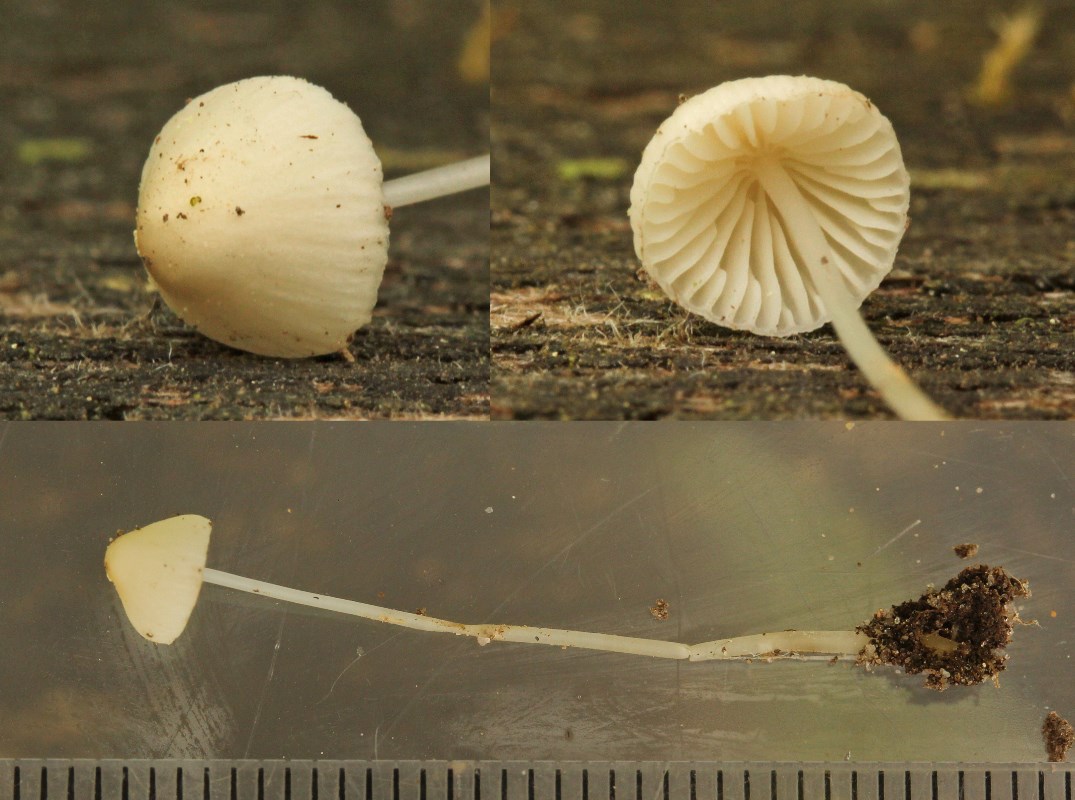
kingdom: Fungi
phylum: Basidiomycota
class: Agaricomycetes
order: Agaricales
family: Mycenaceae
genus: Mycena
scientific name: Mycena vitilis
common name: blankstokket huesvamp
